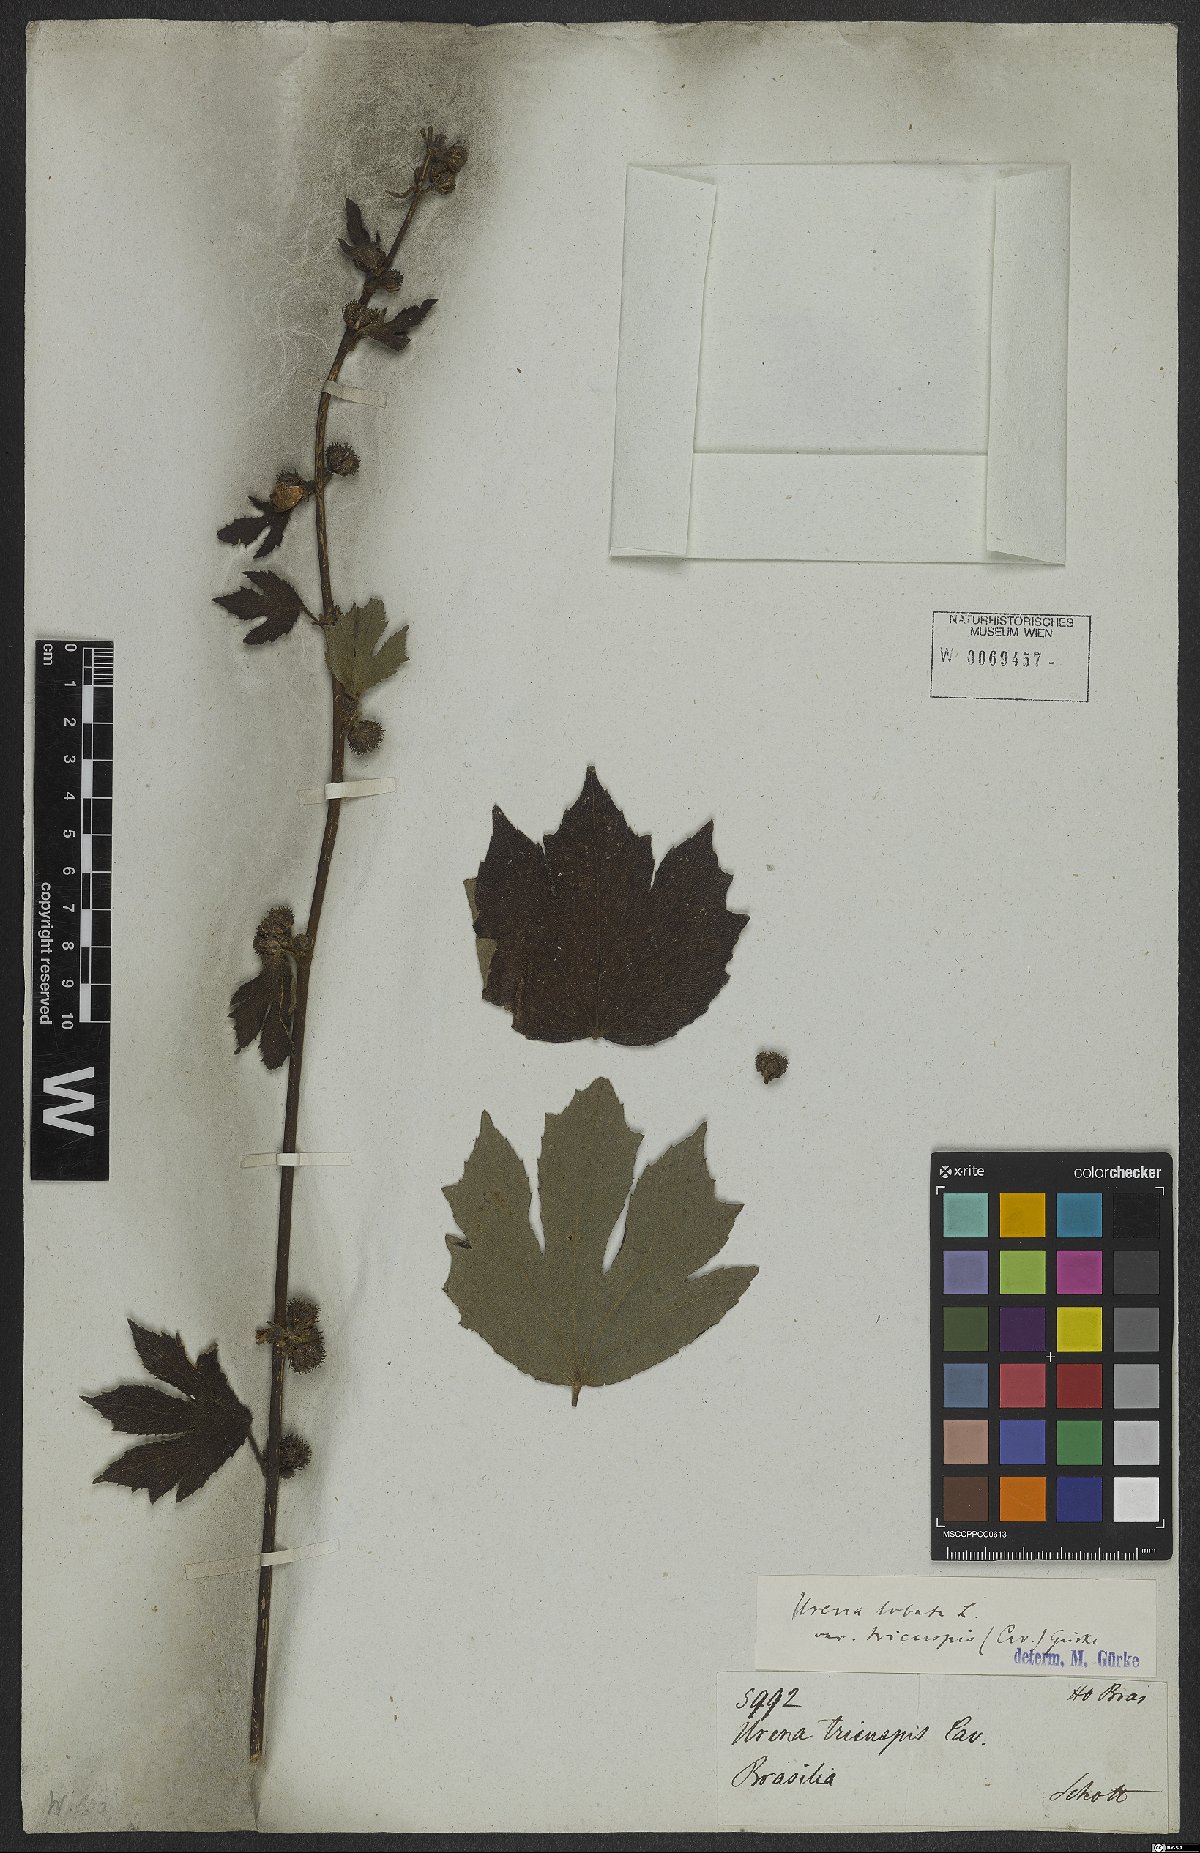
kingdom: Plantae
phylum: Tracheophyta
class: Magnoliopsida
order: Malvales
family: Malvaceae
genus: Urena
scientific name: Urena lobata
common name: Caesarweed
